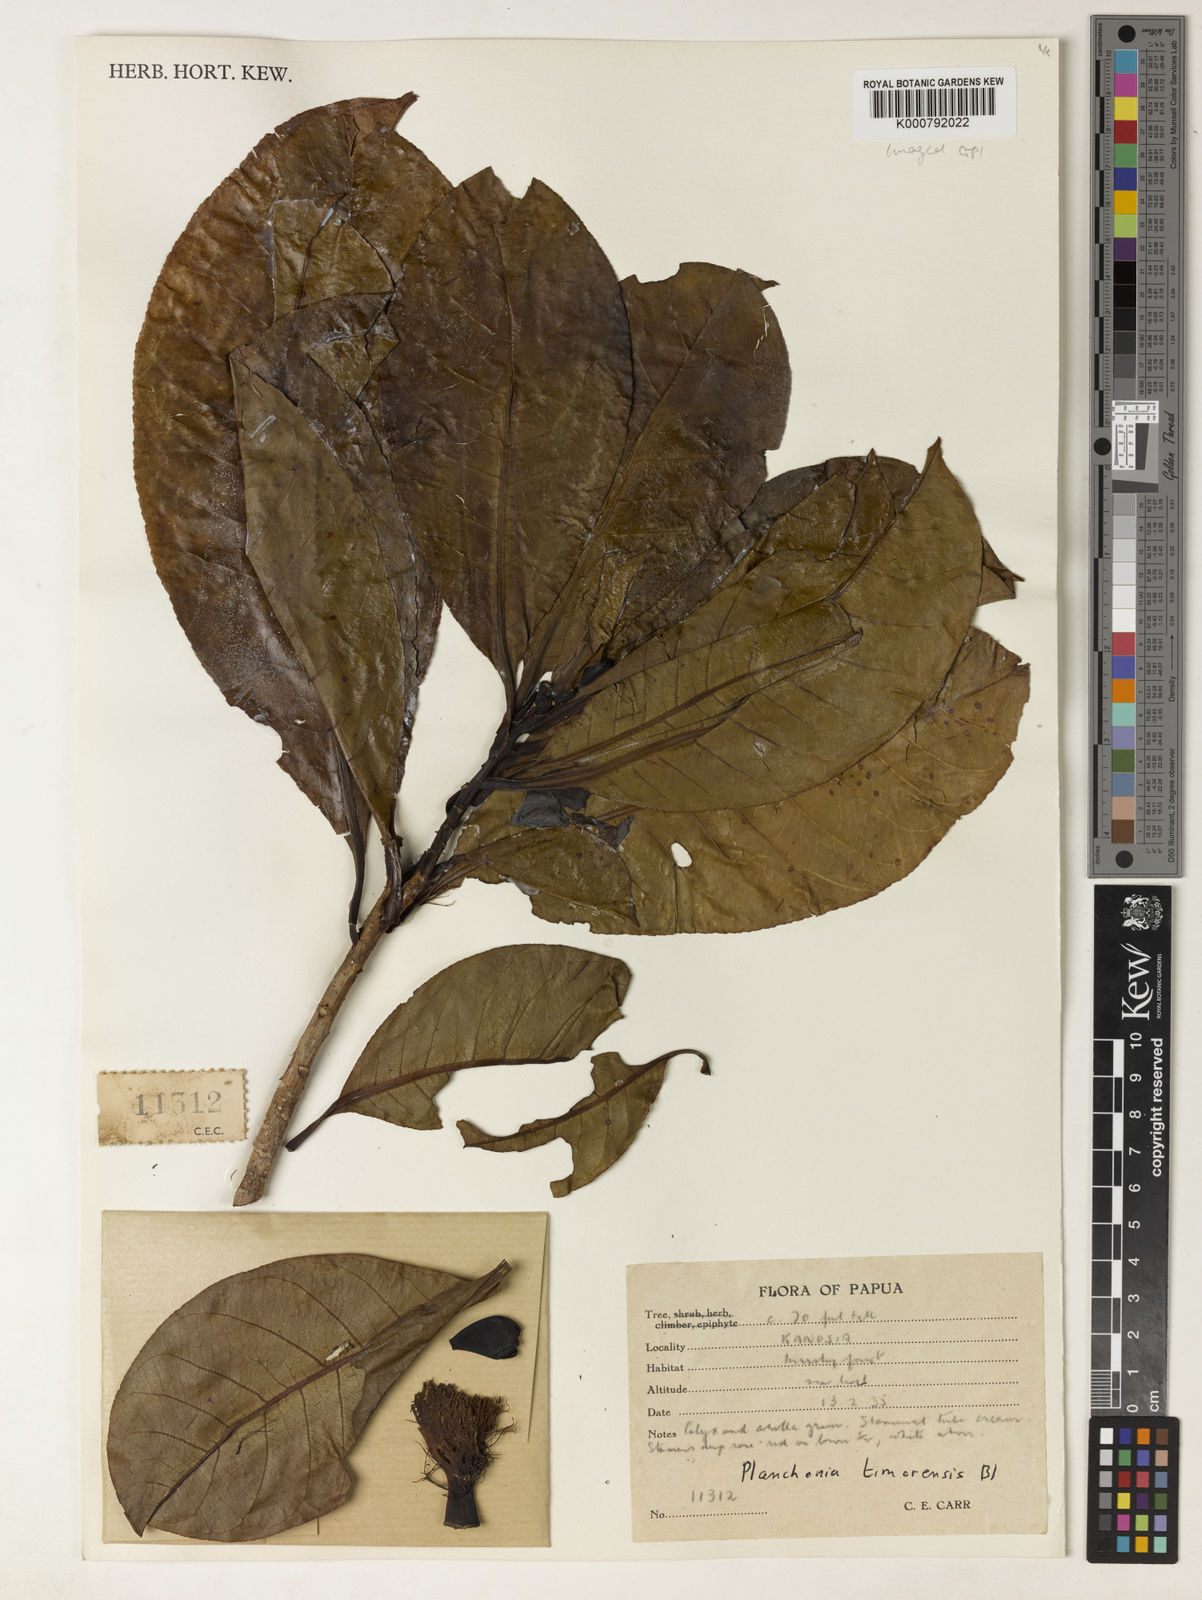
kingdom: Plantae
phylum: Tracheophyta
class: Magnoliopsida
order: Ericales
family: Lecythidaceae
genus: Planchonia
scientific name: Planchonia timorensis
